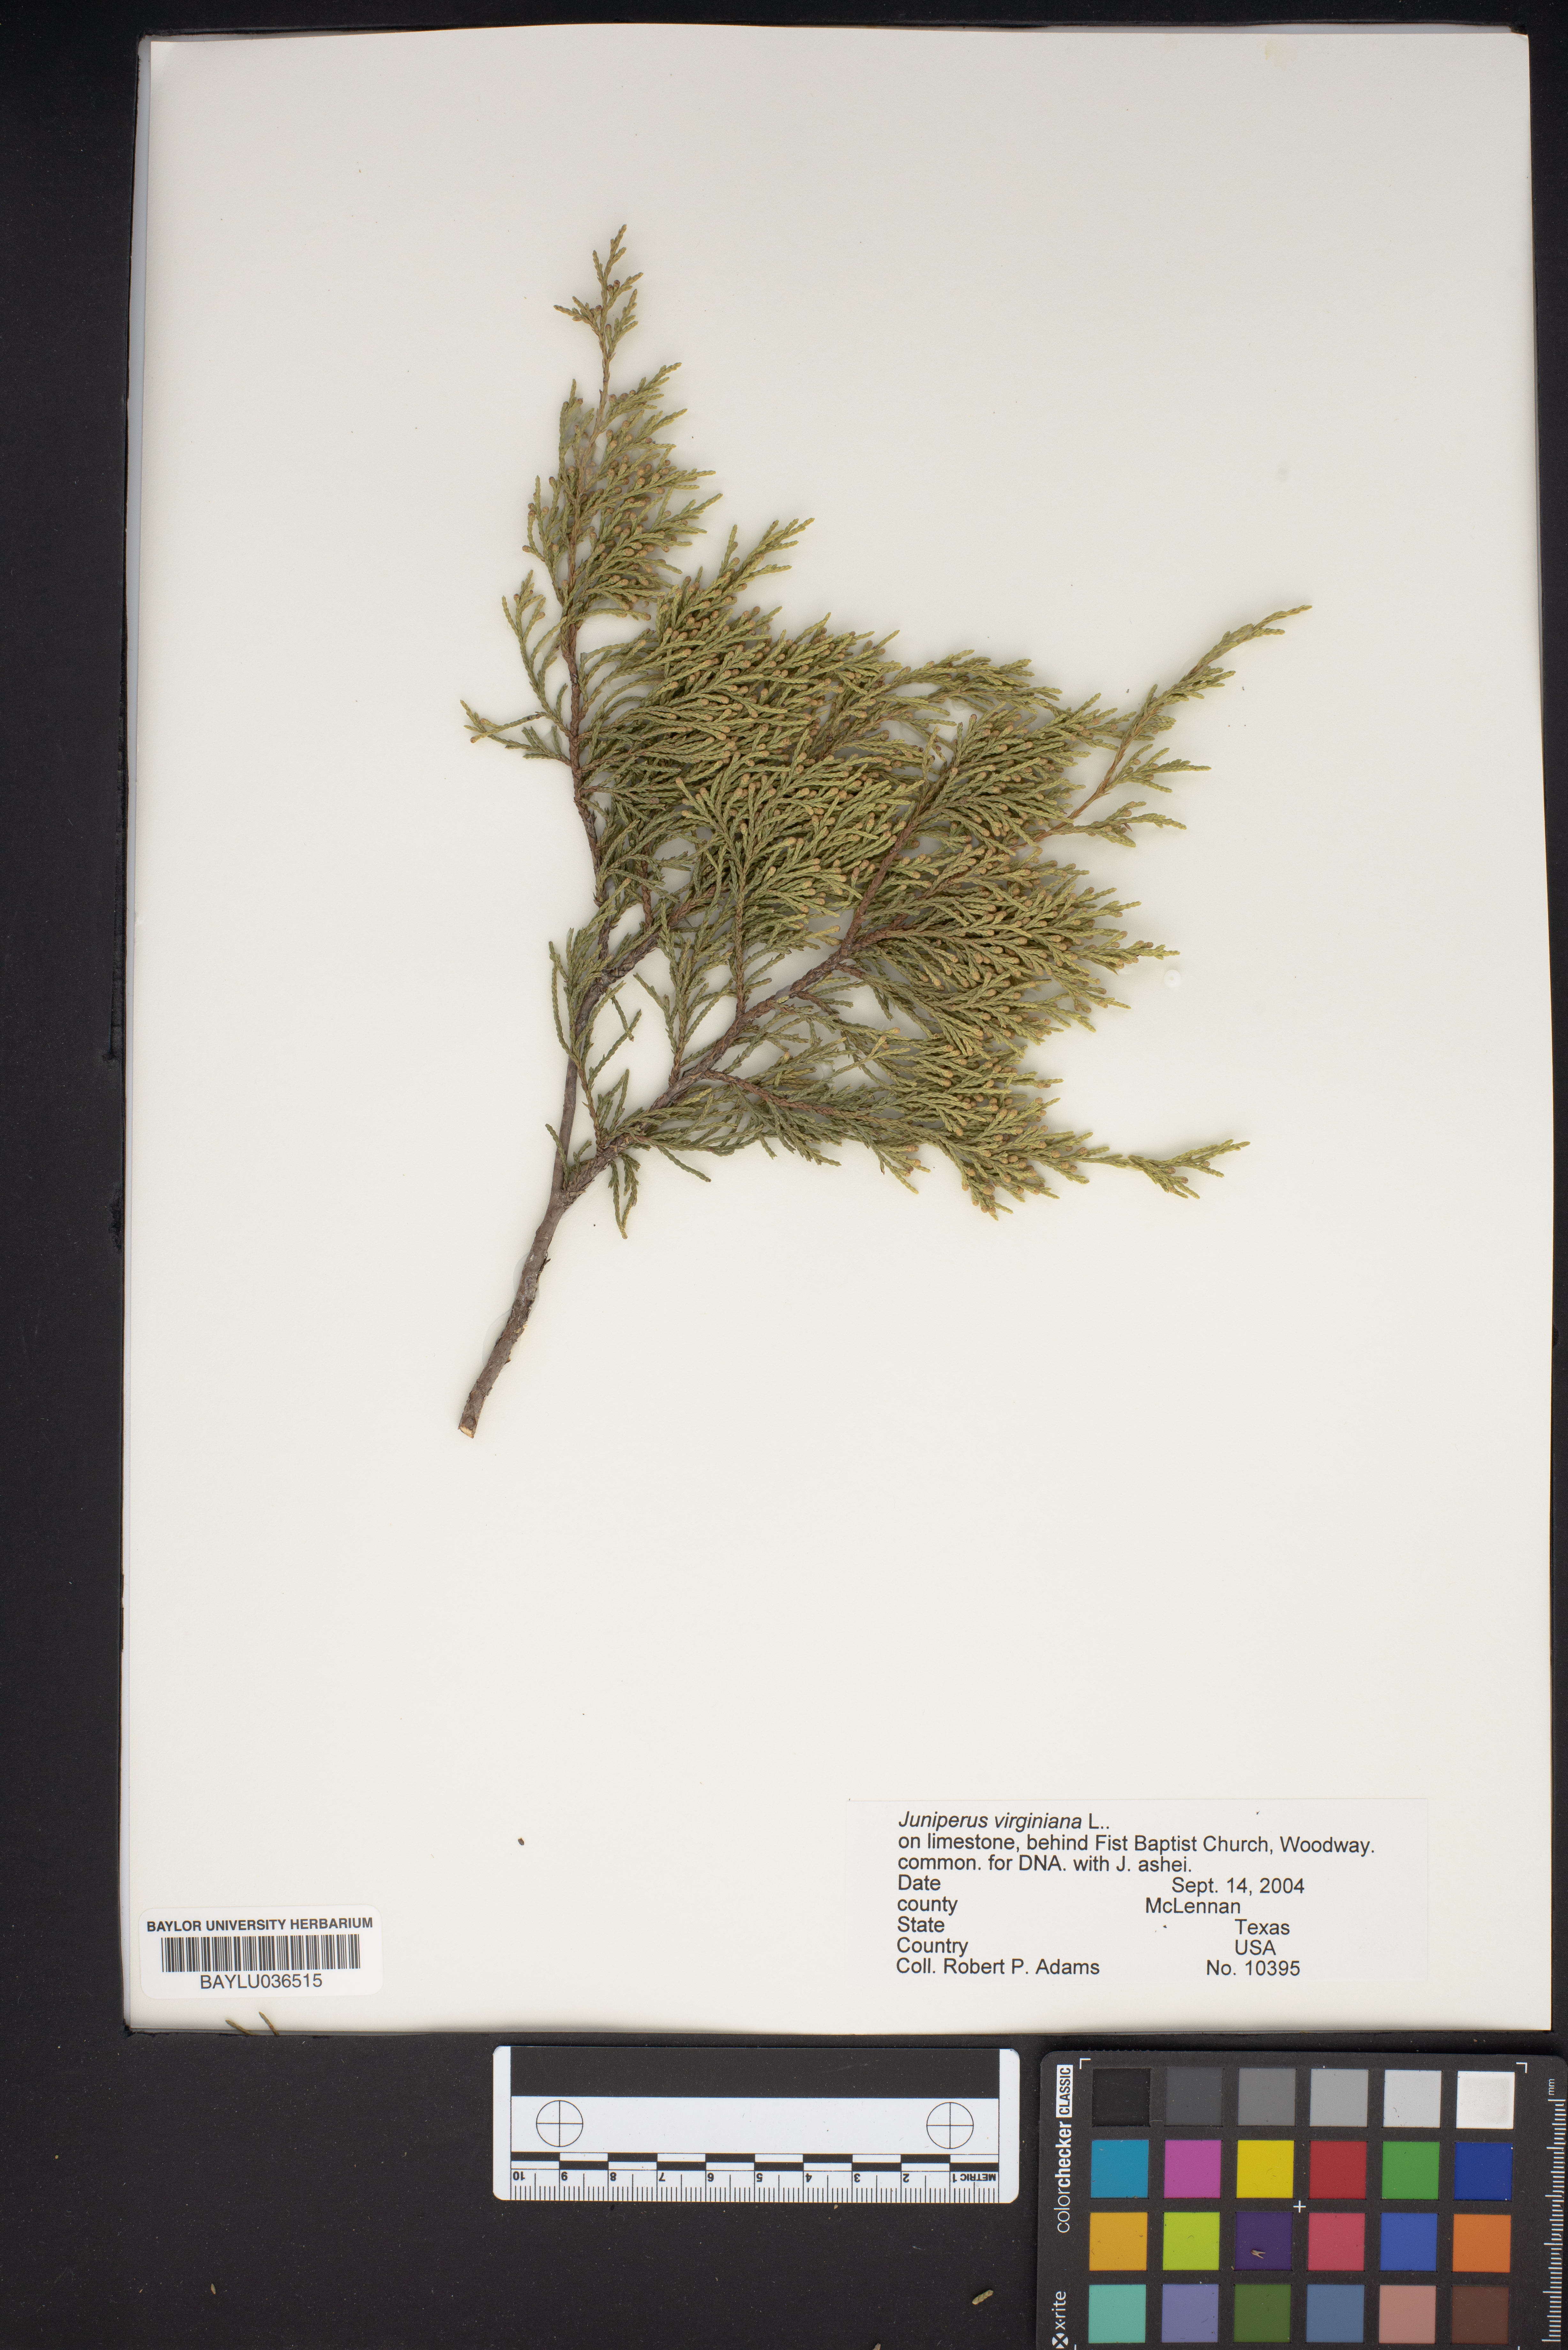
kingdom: Plantae
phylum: Tracheophyta
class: Pinopsida
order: Pinales
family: Cupressaceae
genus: Juniperus
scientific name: Juniperus virginiana
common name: Red juniper
